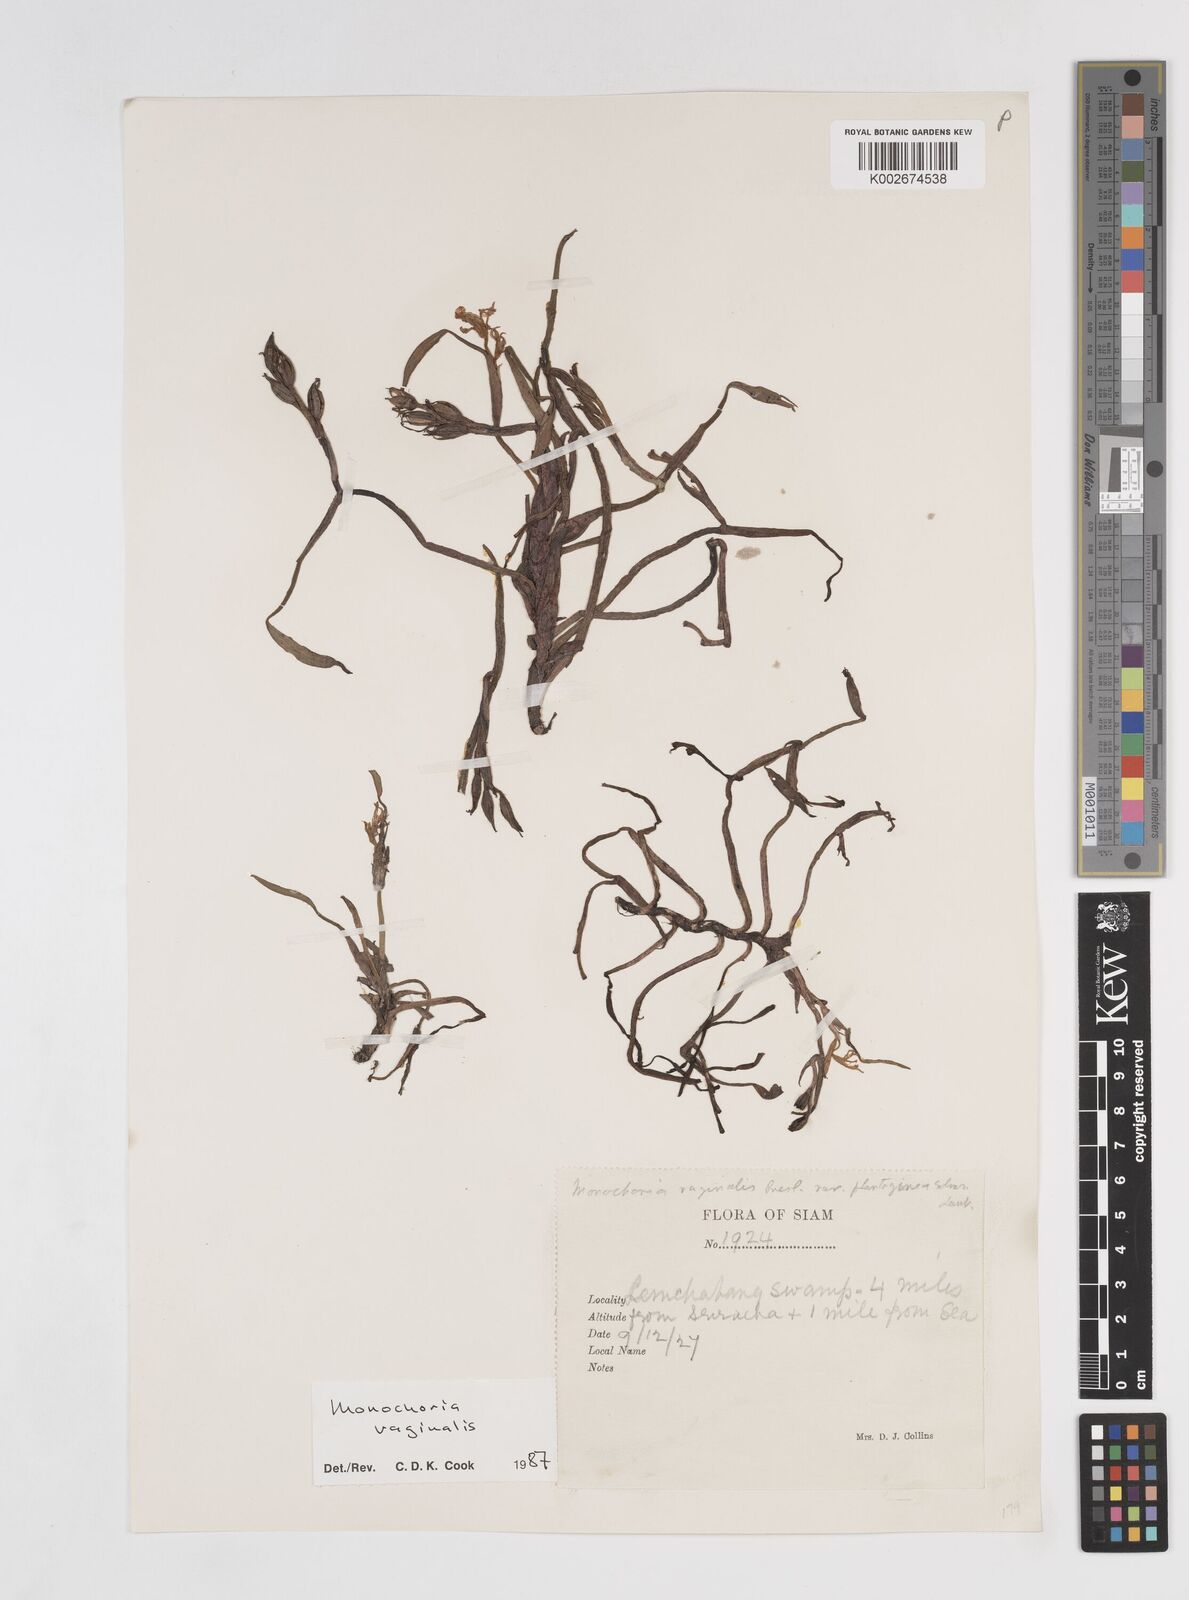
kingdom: Plantae
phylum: Tracheophyta
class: Liliopsida
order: Commelinales
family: Pontederiaceae
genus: Pontederia
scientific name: Pontederia vaginalis
